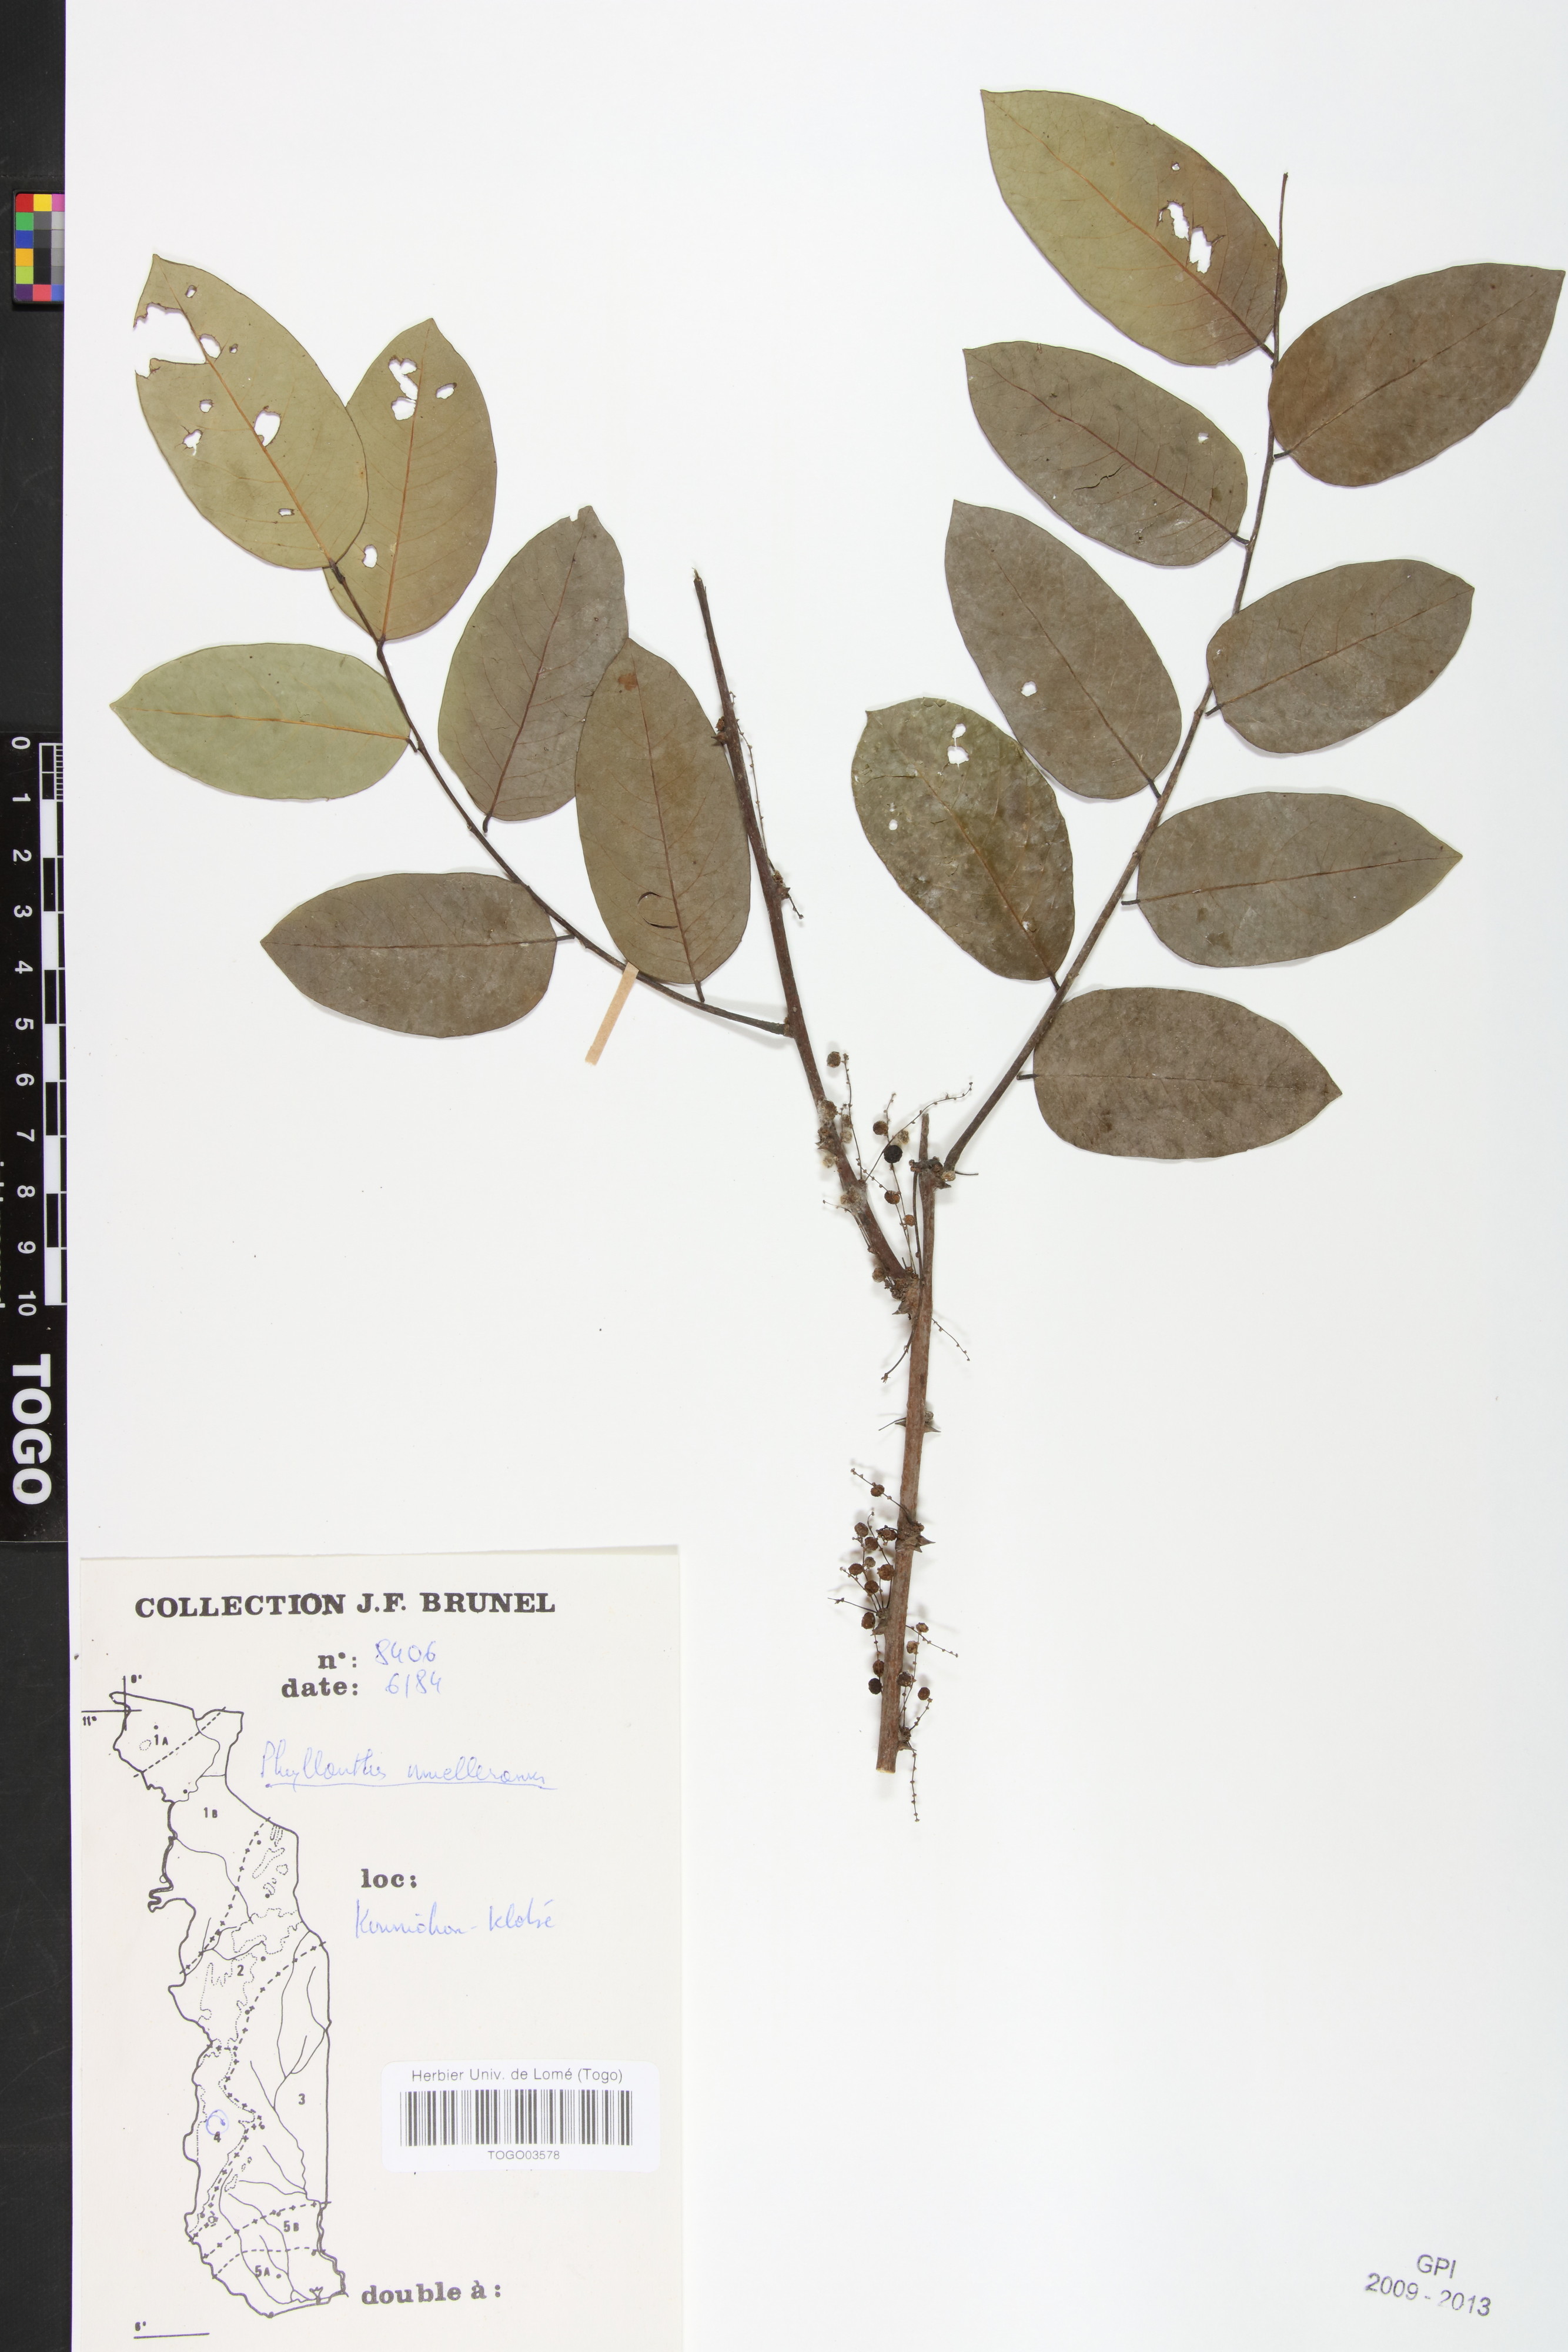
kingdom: Plantae
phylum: Tracheophyta
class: Magnoliopsida
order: Malpighiales
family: Phyllanthaceae
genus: Phyllanthus
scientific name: Phyllanthus muellerianus
